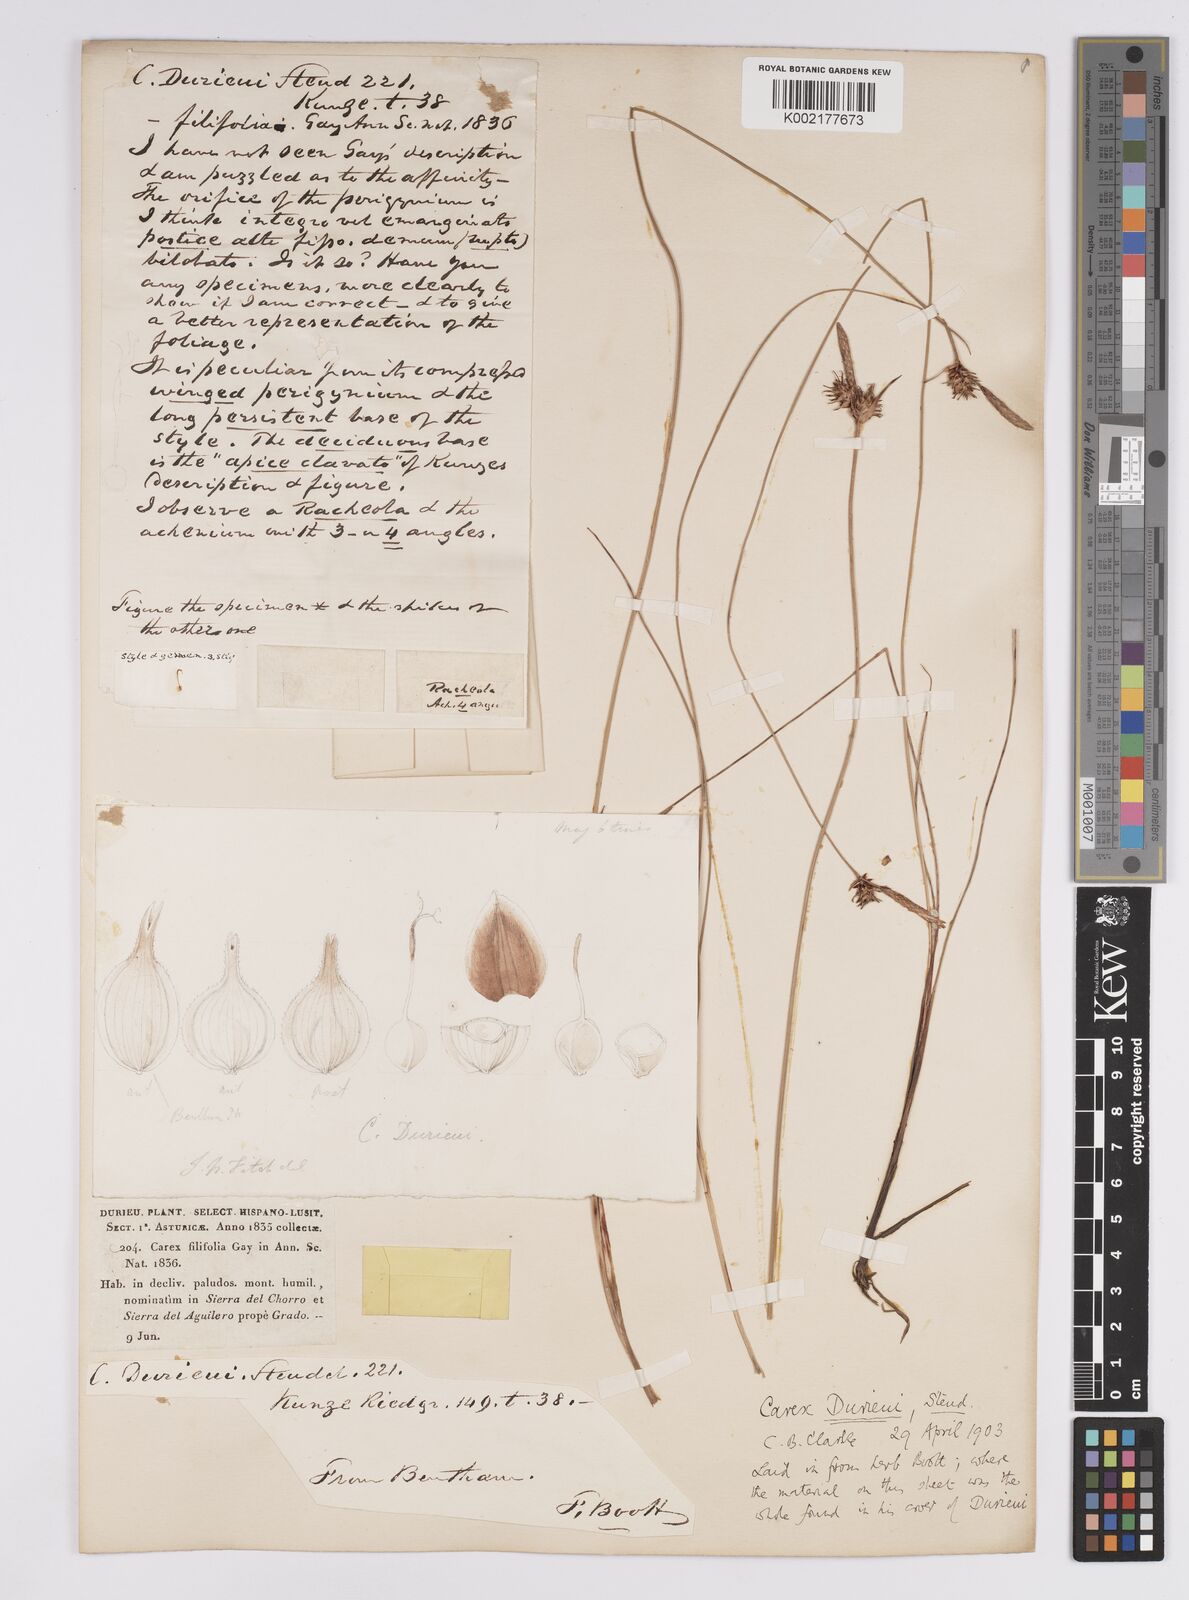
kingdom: Plantae
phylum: Tracheophyta
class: Liliopsida
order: Poales
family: Cyperaceae
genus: Carex
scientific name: Carex durieui
